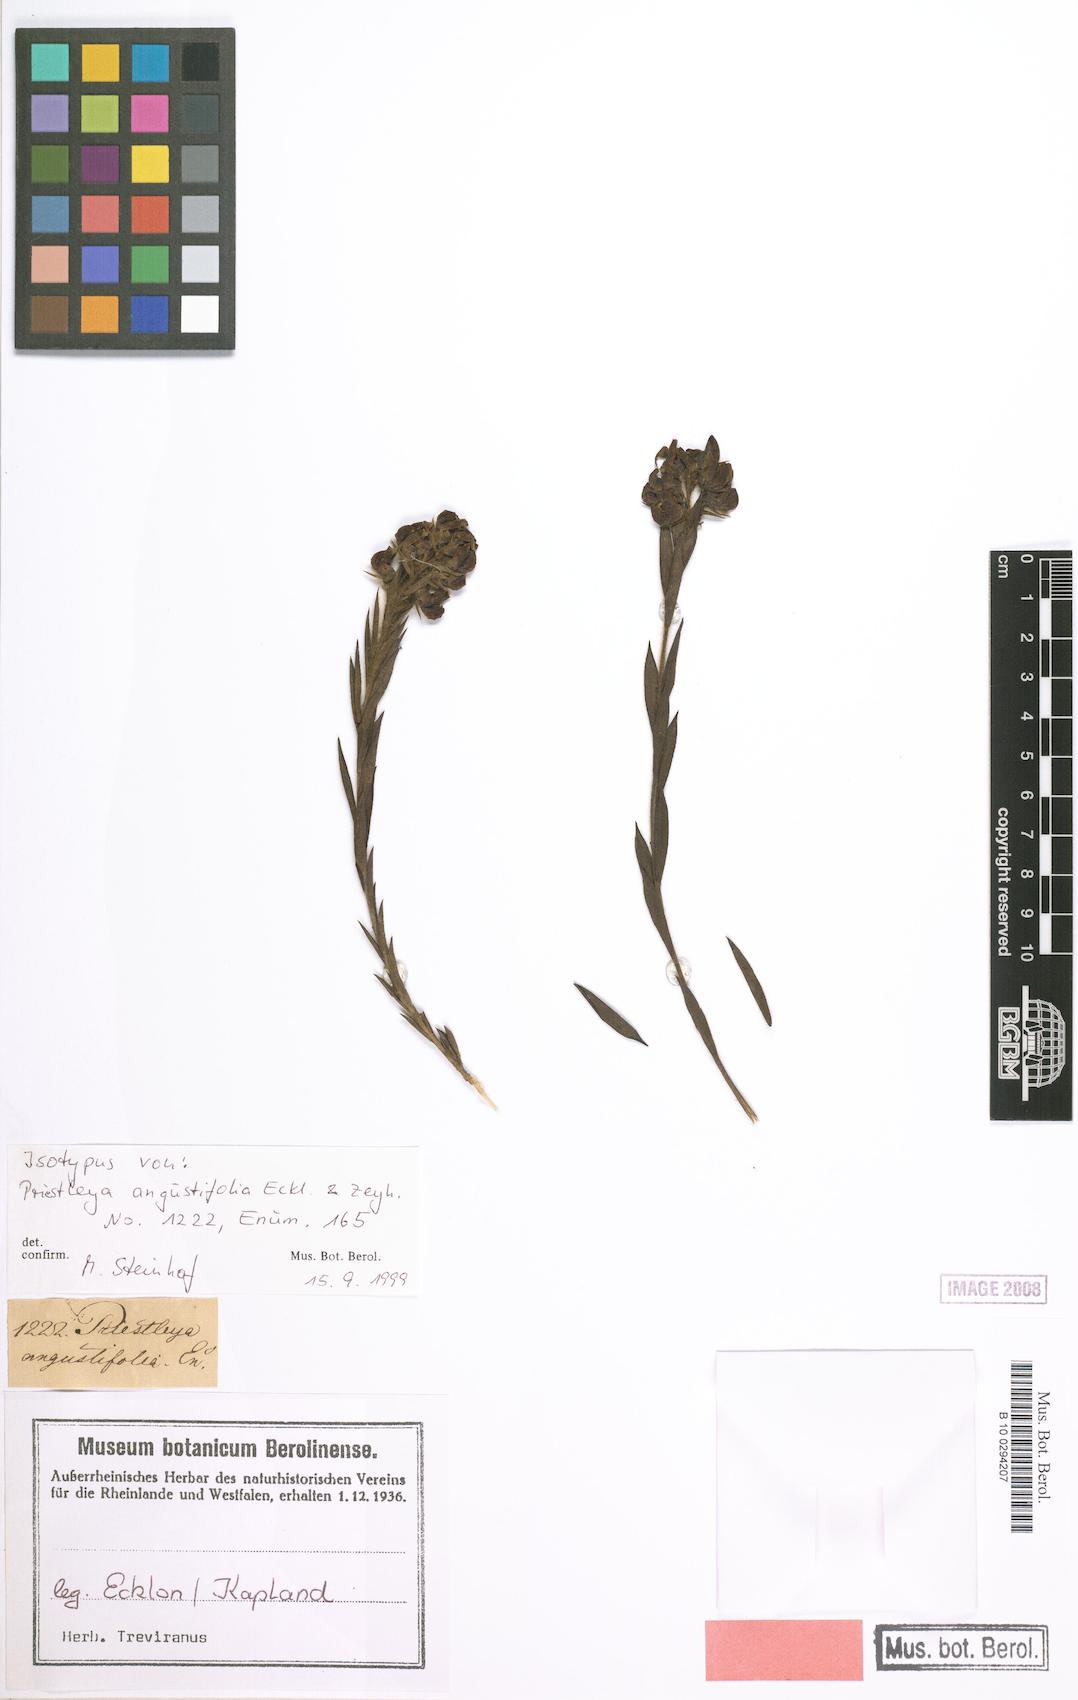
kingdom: Plantae
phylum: Tracheophyta
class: Magnoliopsida
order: Fabales
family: Fabaceae
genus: Liparia
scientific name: Liparia angustifolia
